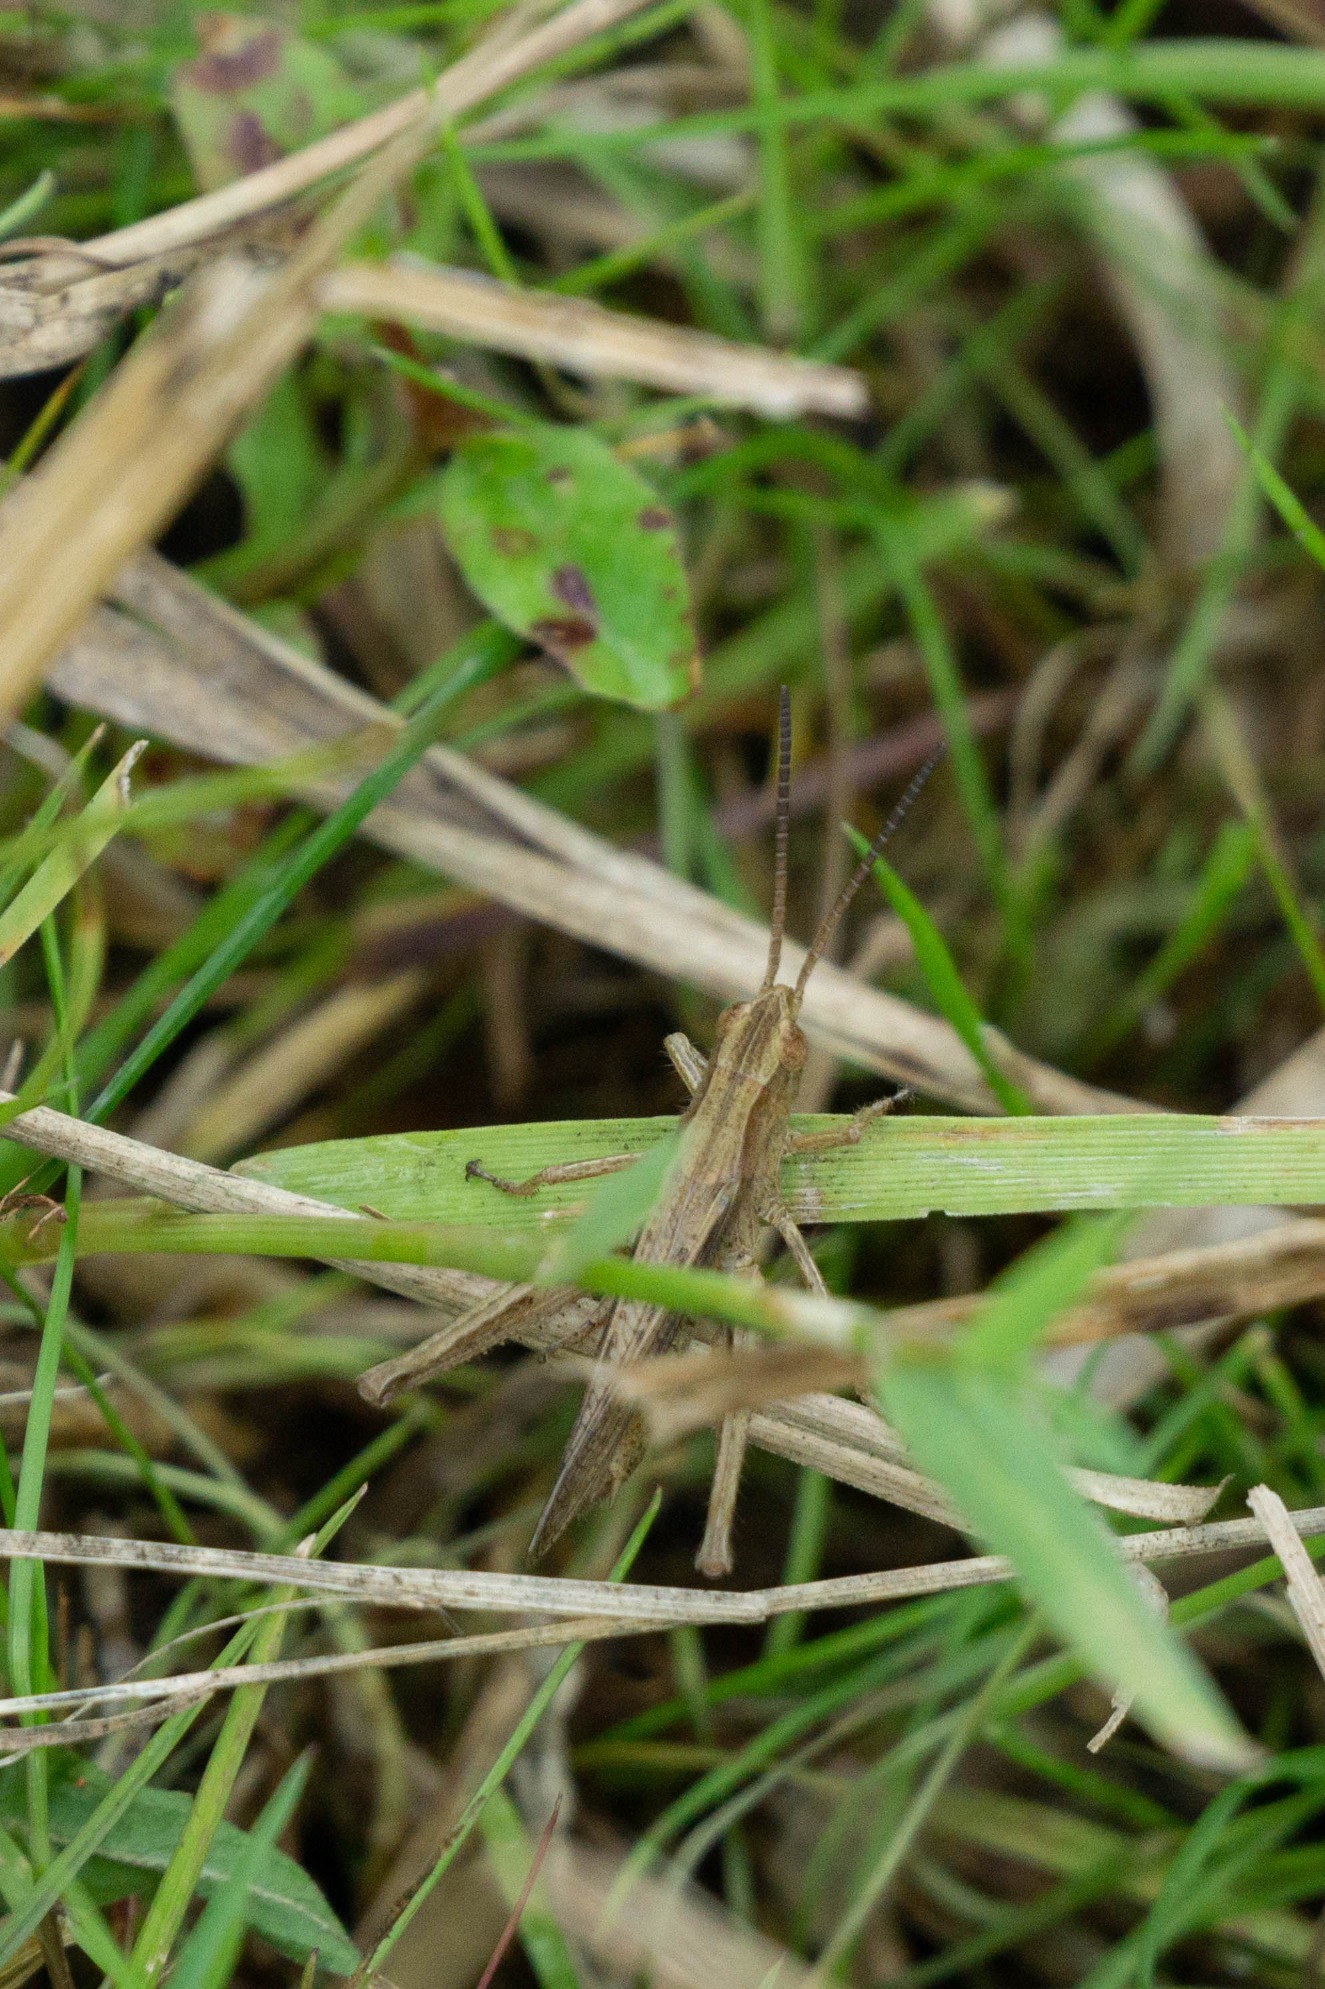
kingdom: Animalia
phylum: Arthropoda
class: Insecta
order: Orthoptera
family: Acrididae
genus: Chorthippus
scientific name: Chorthippus dorsatus
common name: Stor enggræshoppe
